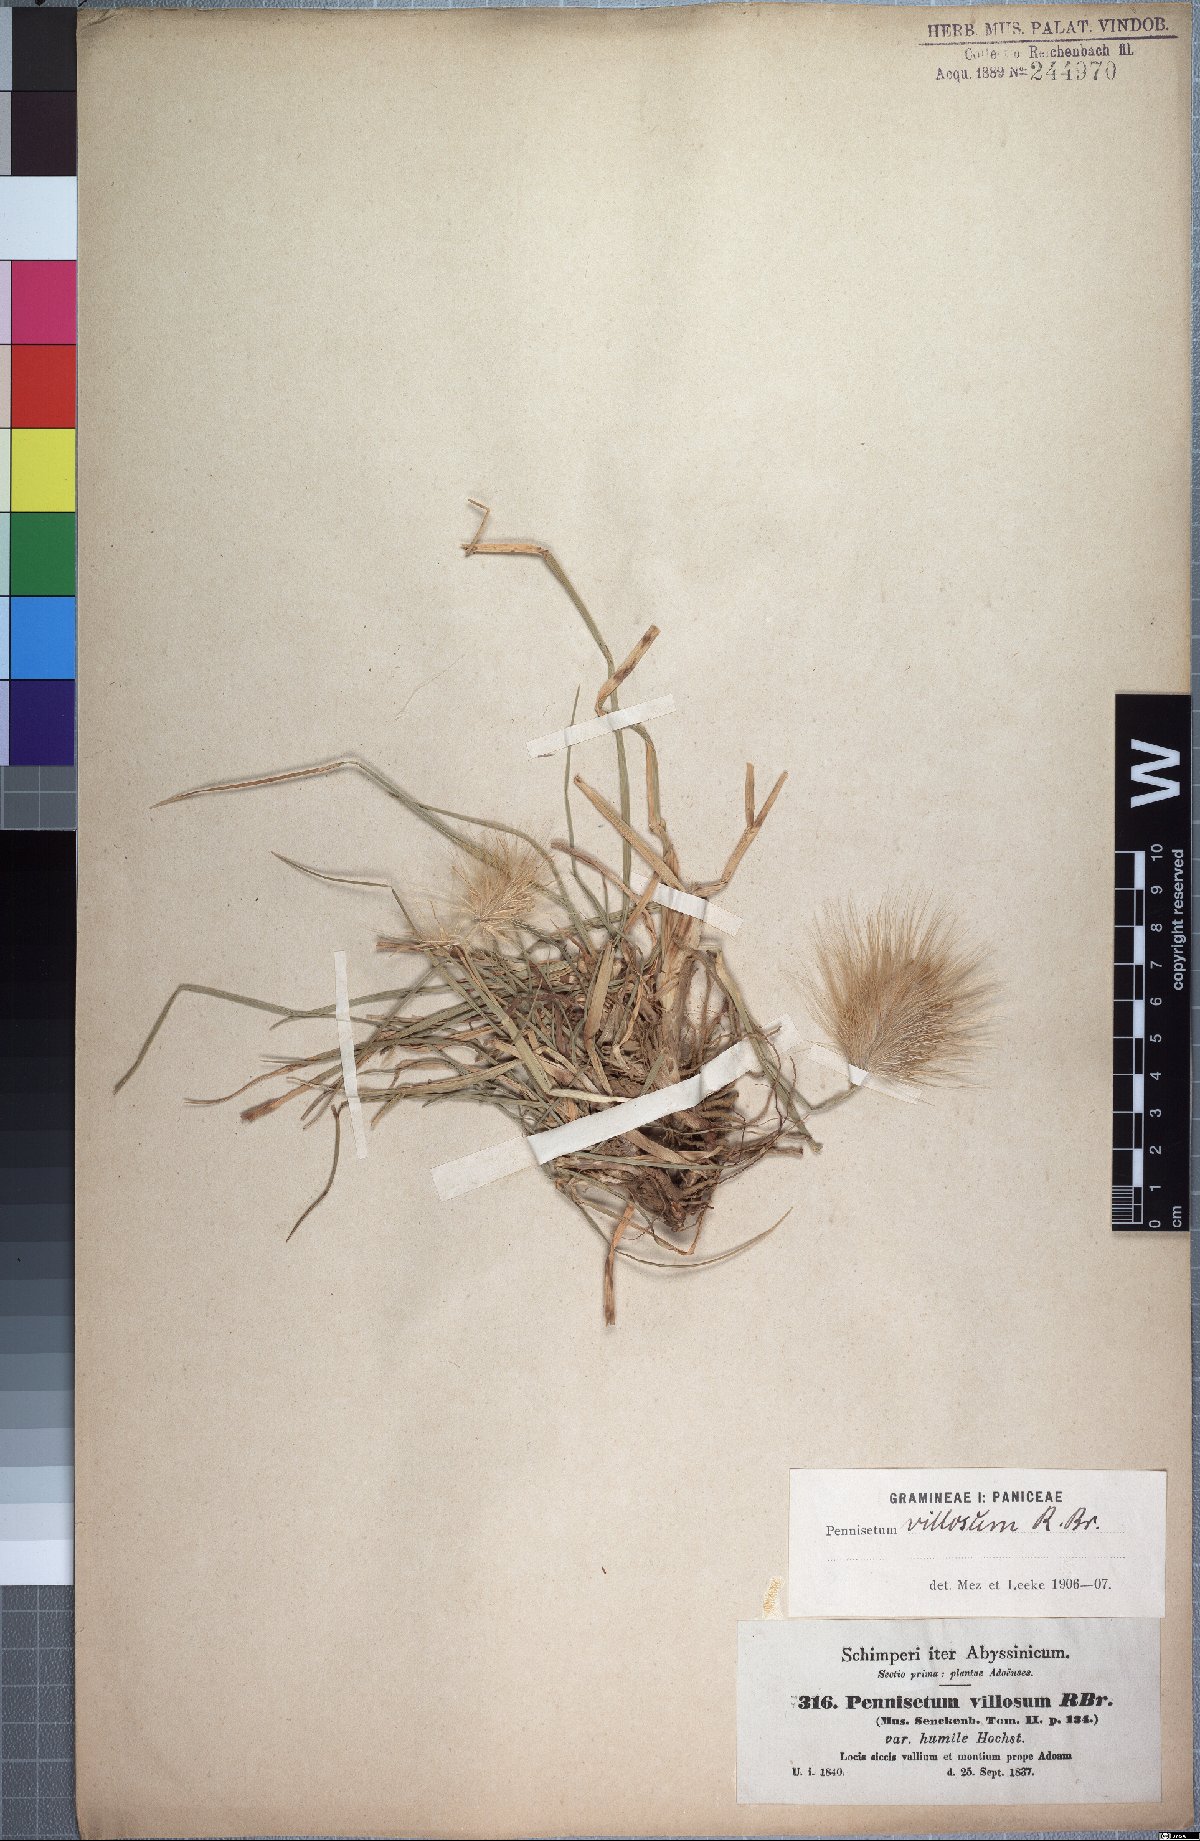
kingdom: Plantae
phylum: Tracheophyta
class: Liliopsida
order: Poales
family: Poaceae
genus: Cenchrus
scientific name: Cenchrus longisetus
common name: Feathertop
